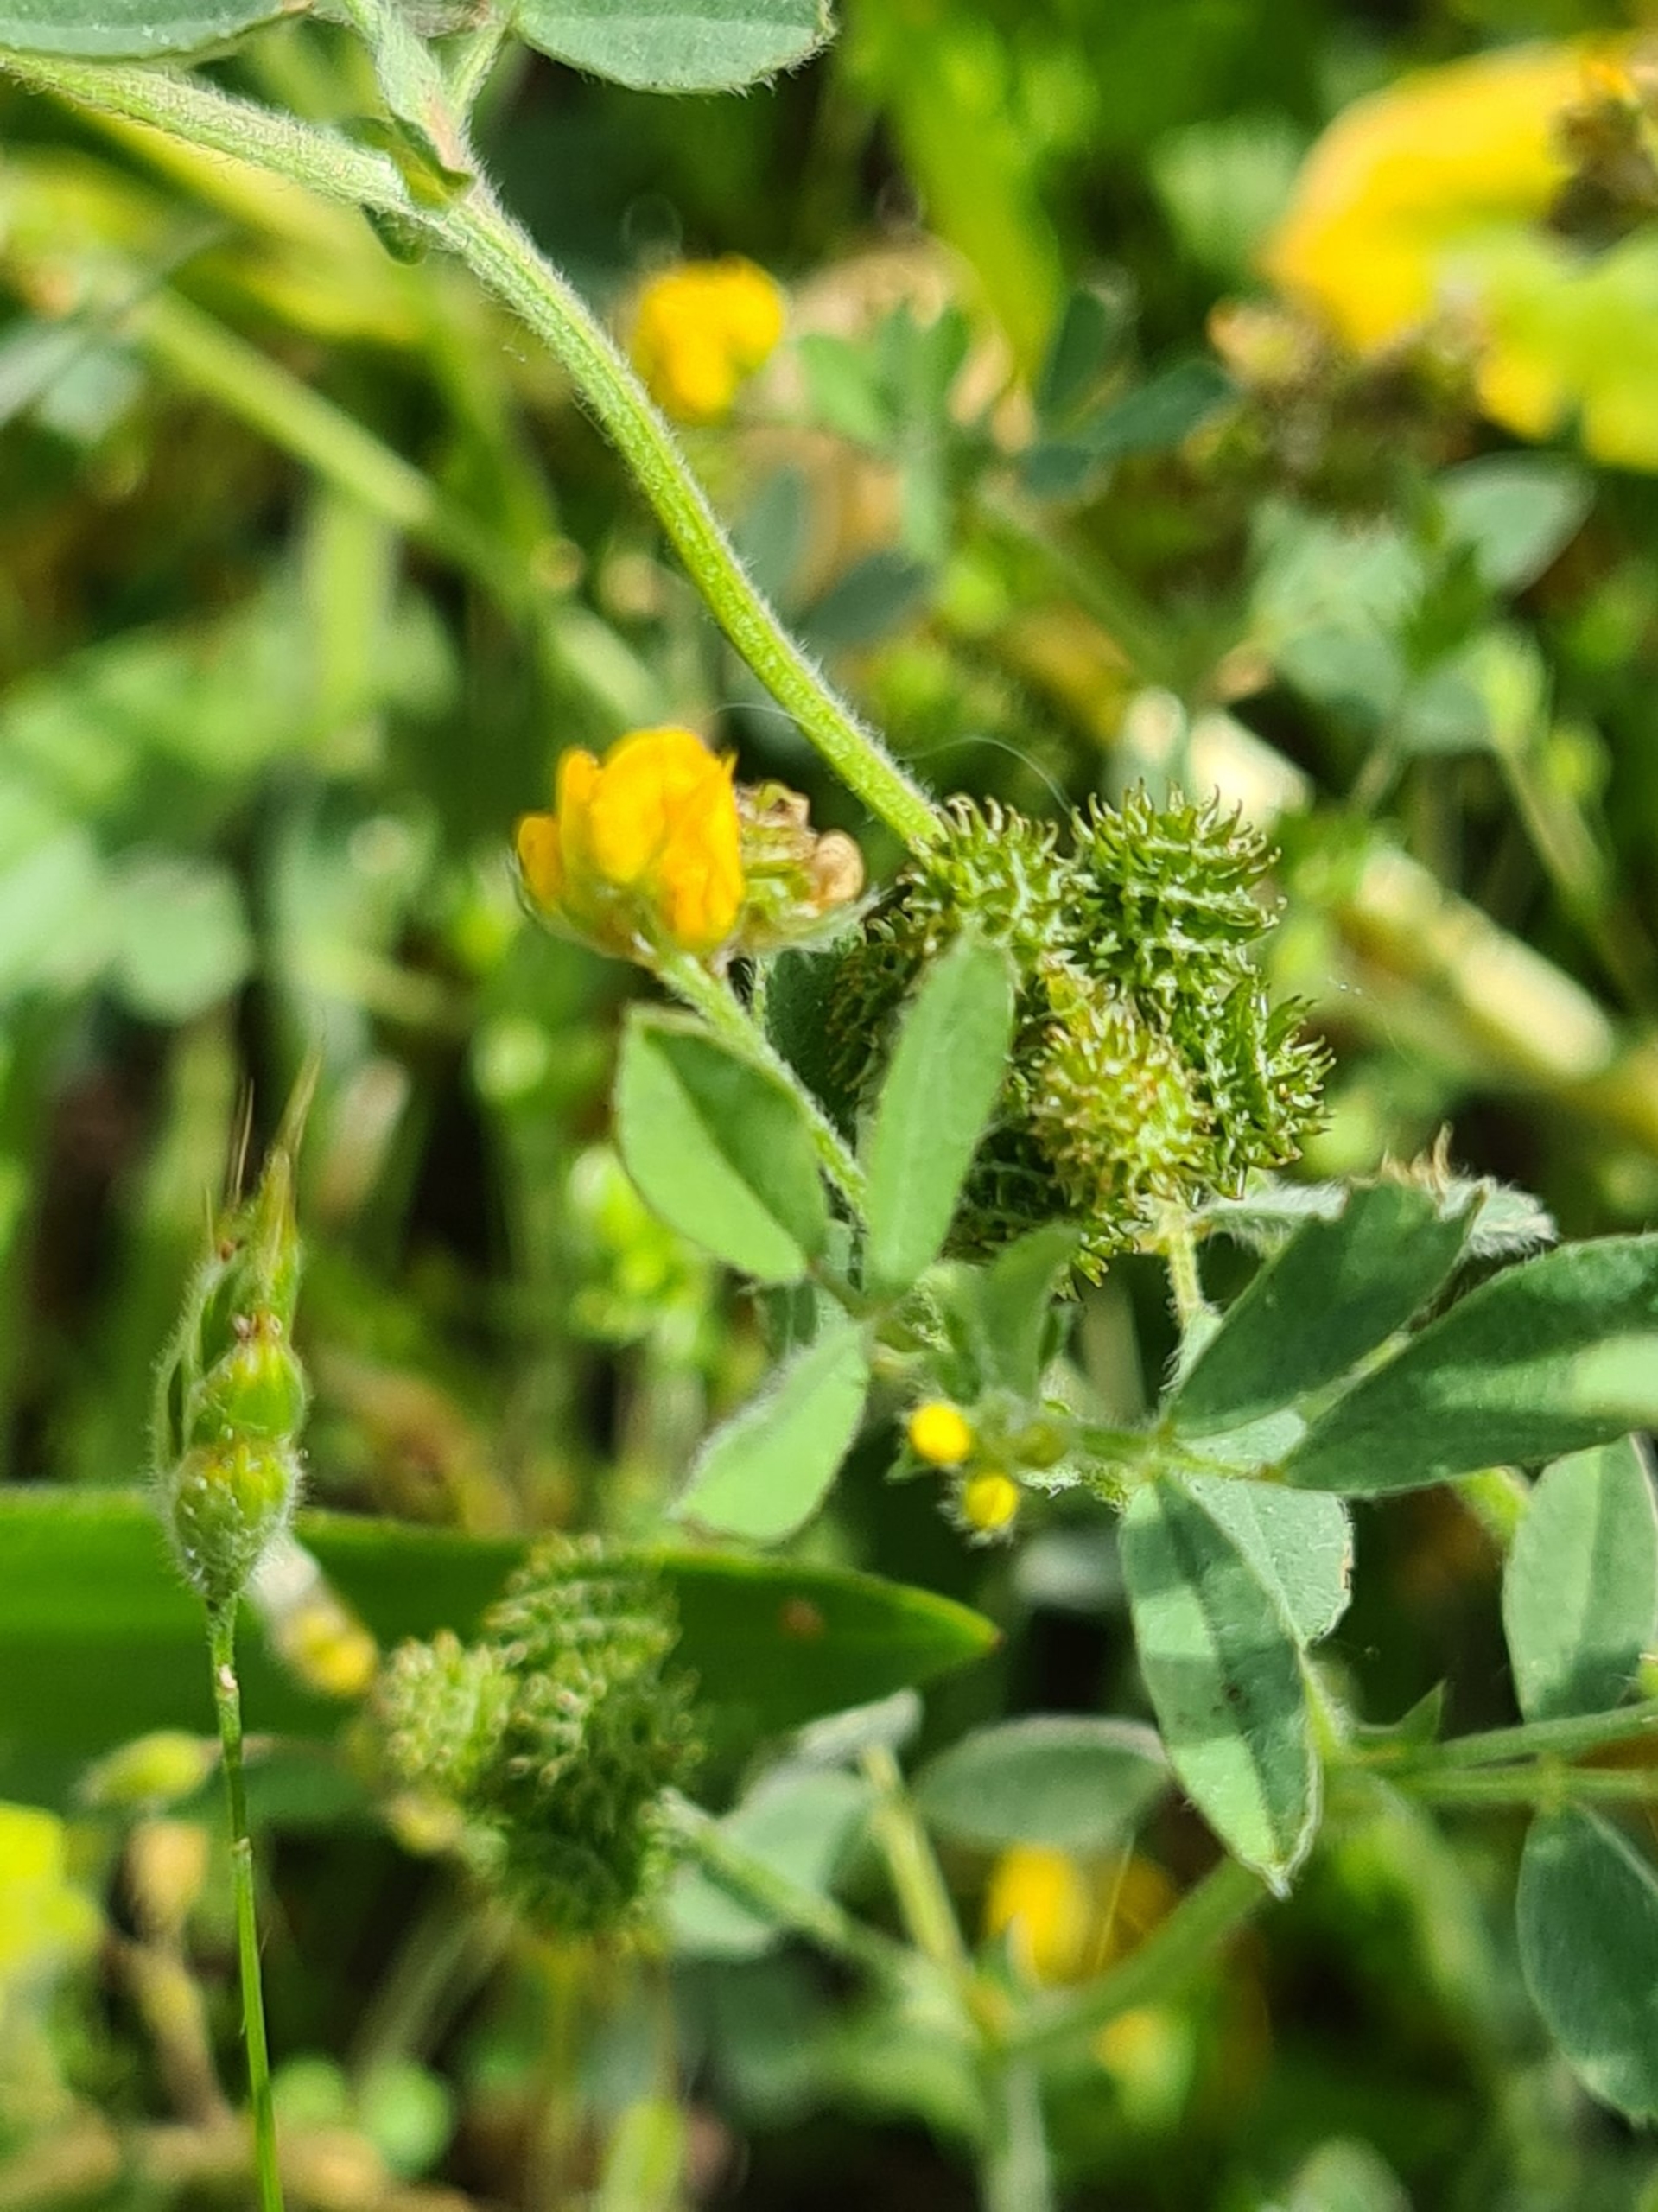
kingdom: Plantae
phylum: Tracheophyta
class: Magnoliopsida
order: Fabales
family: Fabaceae
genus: Medicago
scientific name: Medicago minima
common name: Liden sneglebælg
